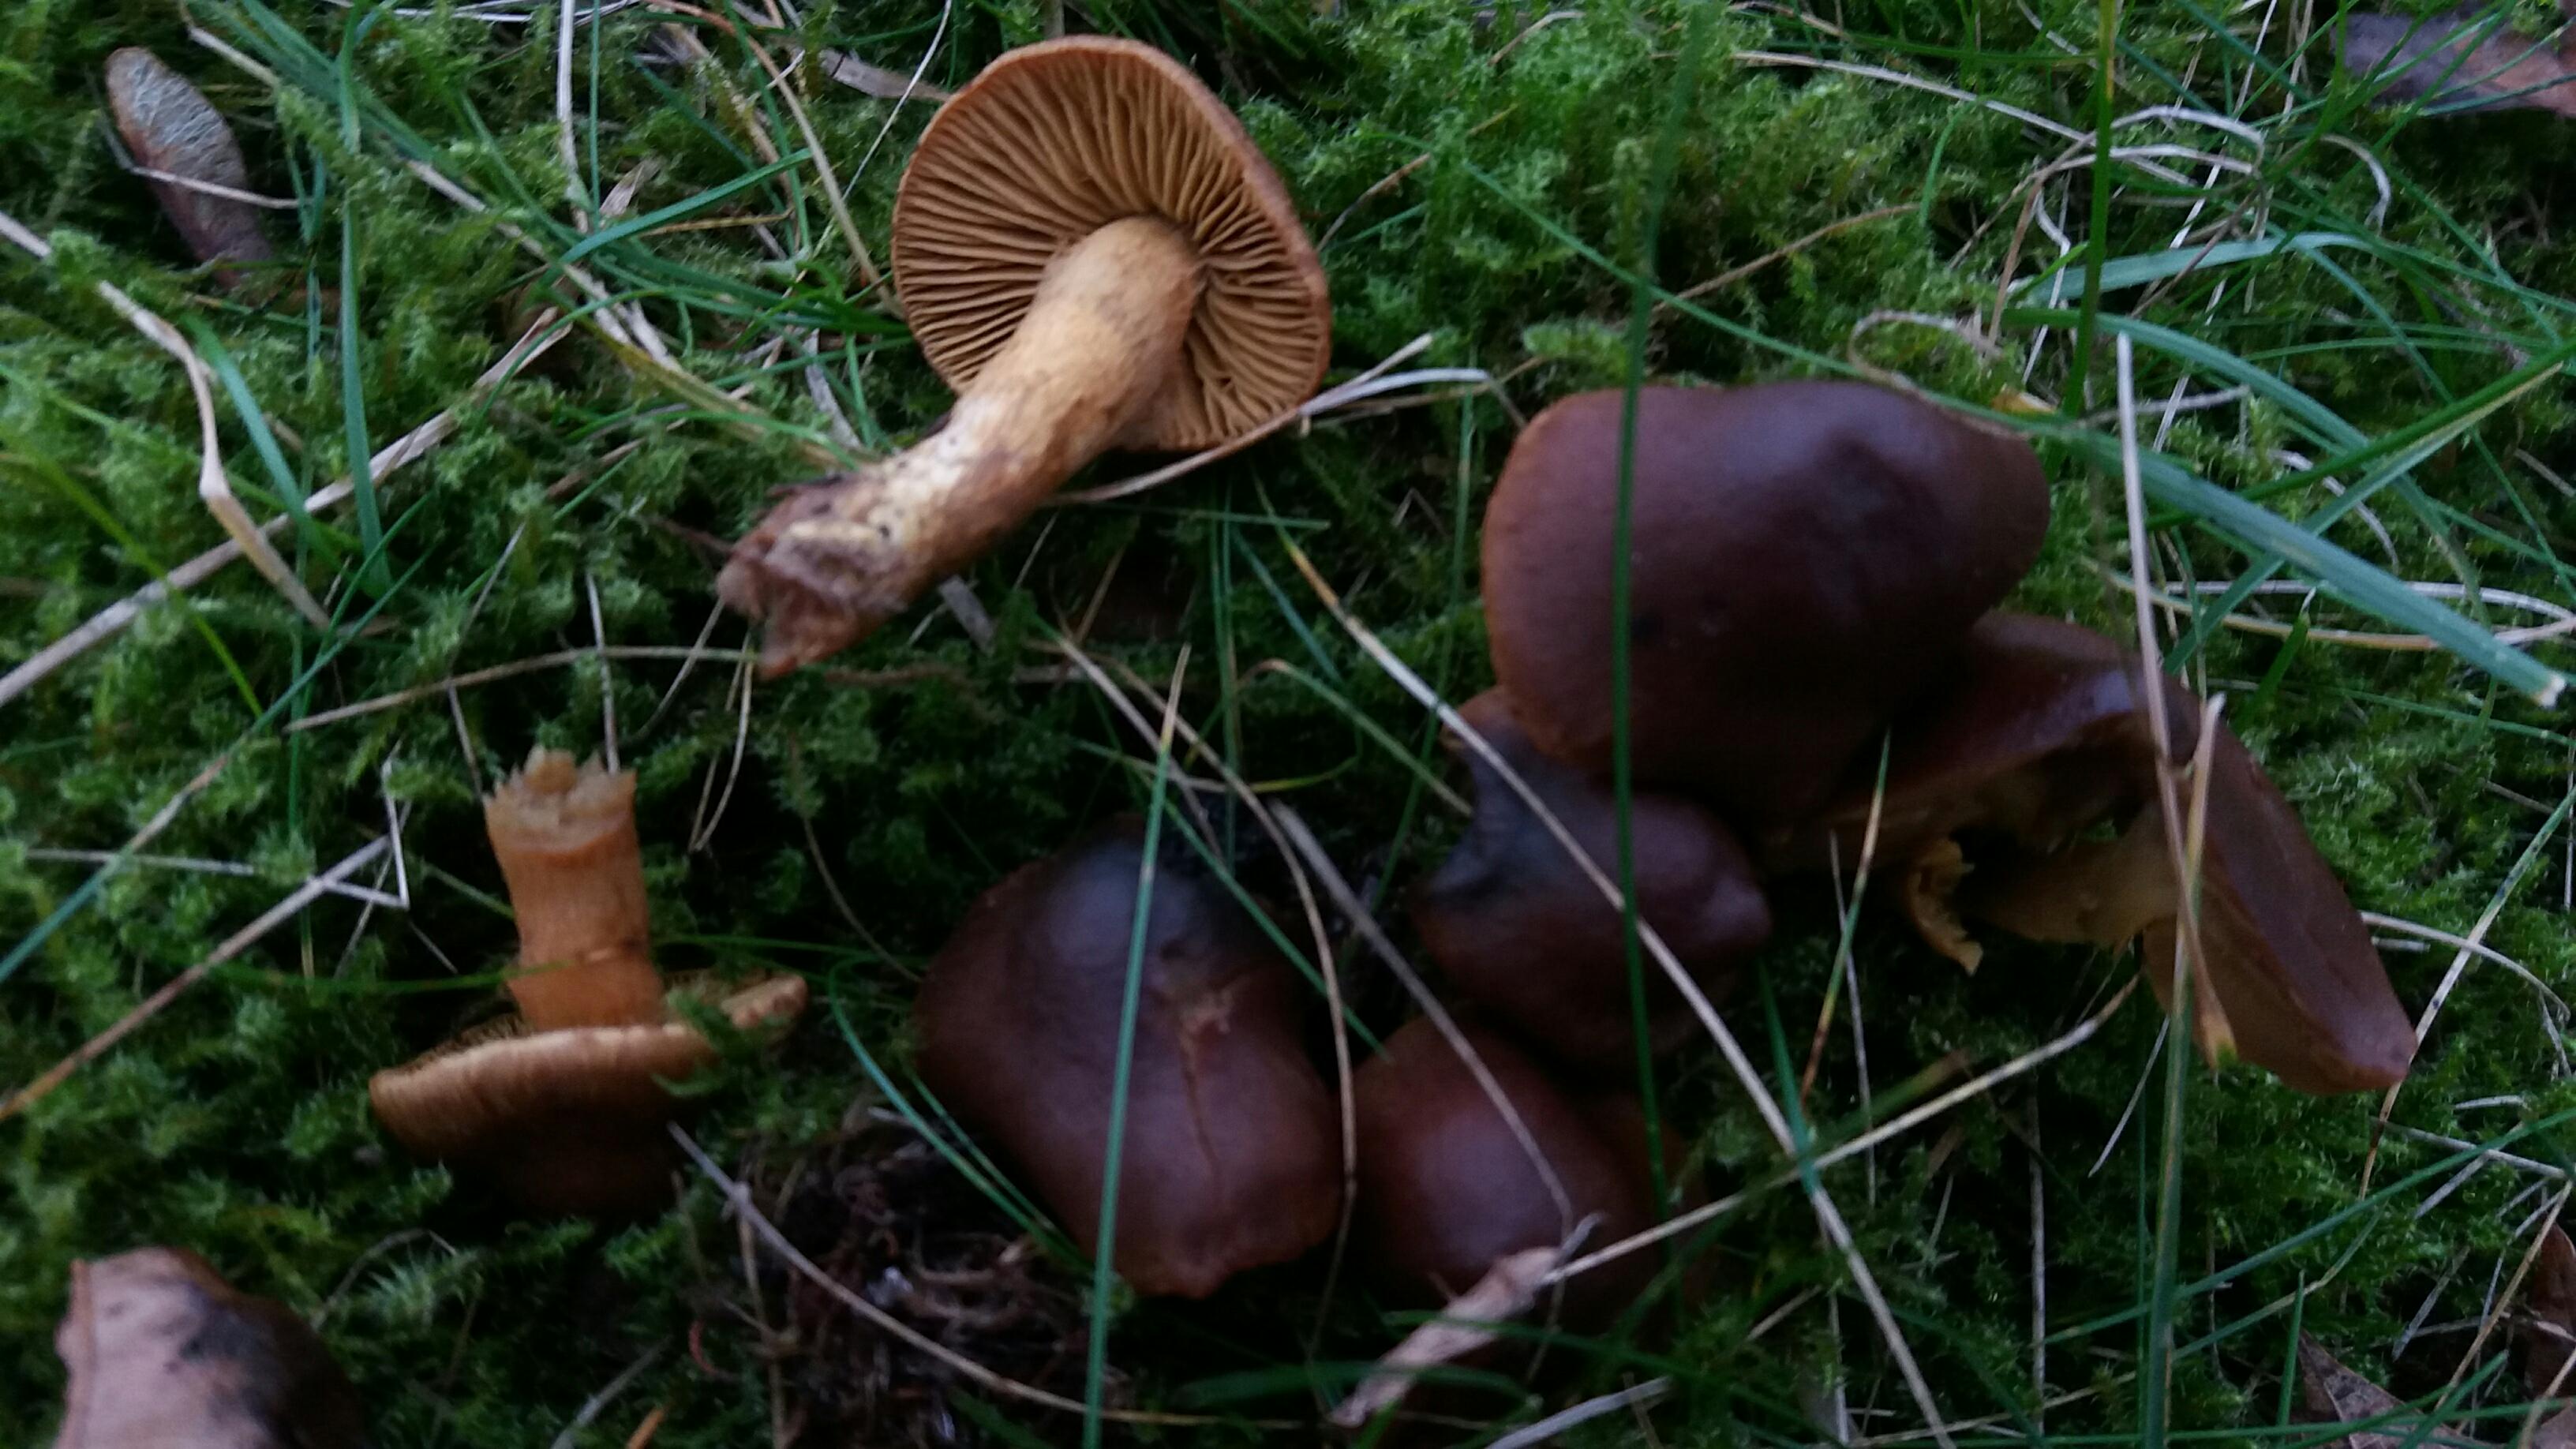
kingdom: Fungi
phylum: Basidiomycota
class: Agaricomycetes
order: Agaricales
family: Cortinariaceae
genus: Cortinarius
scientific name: Cortinarius
